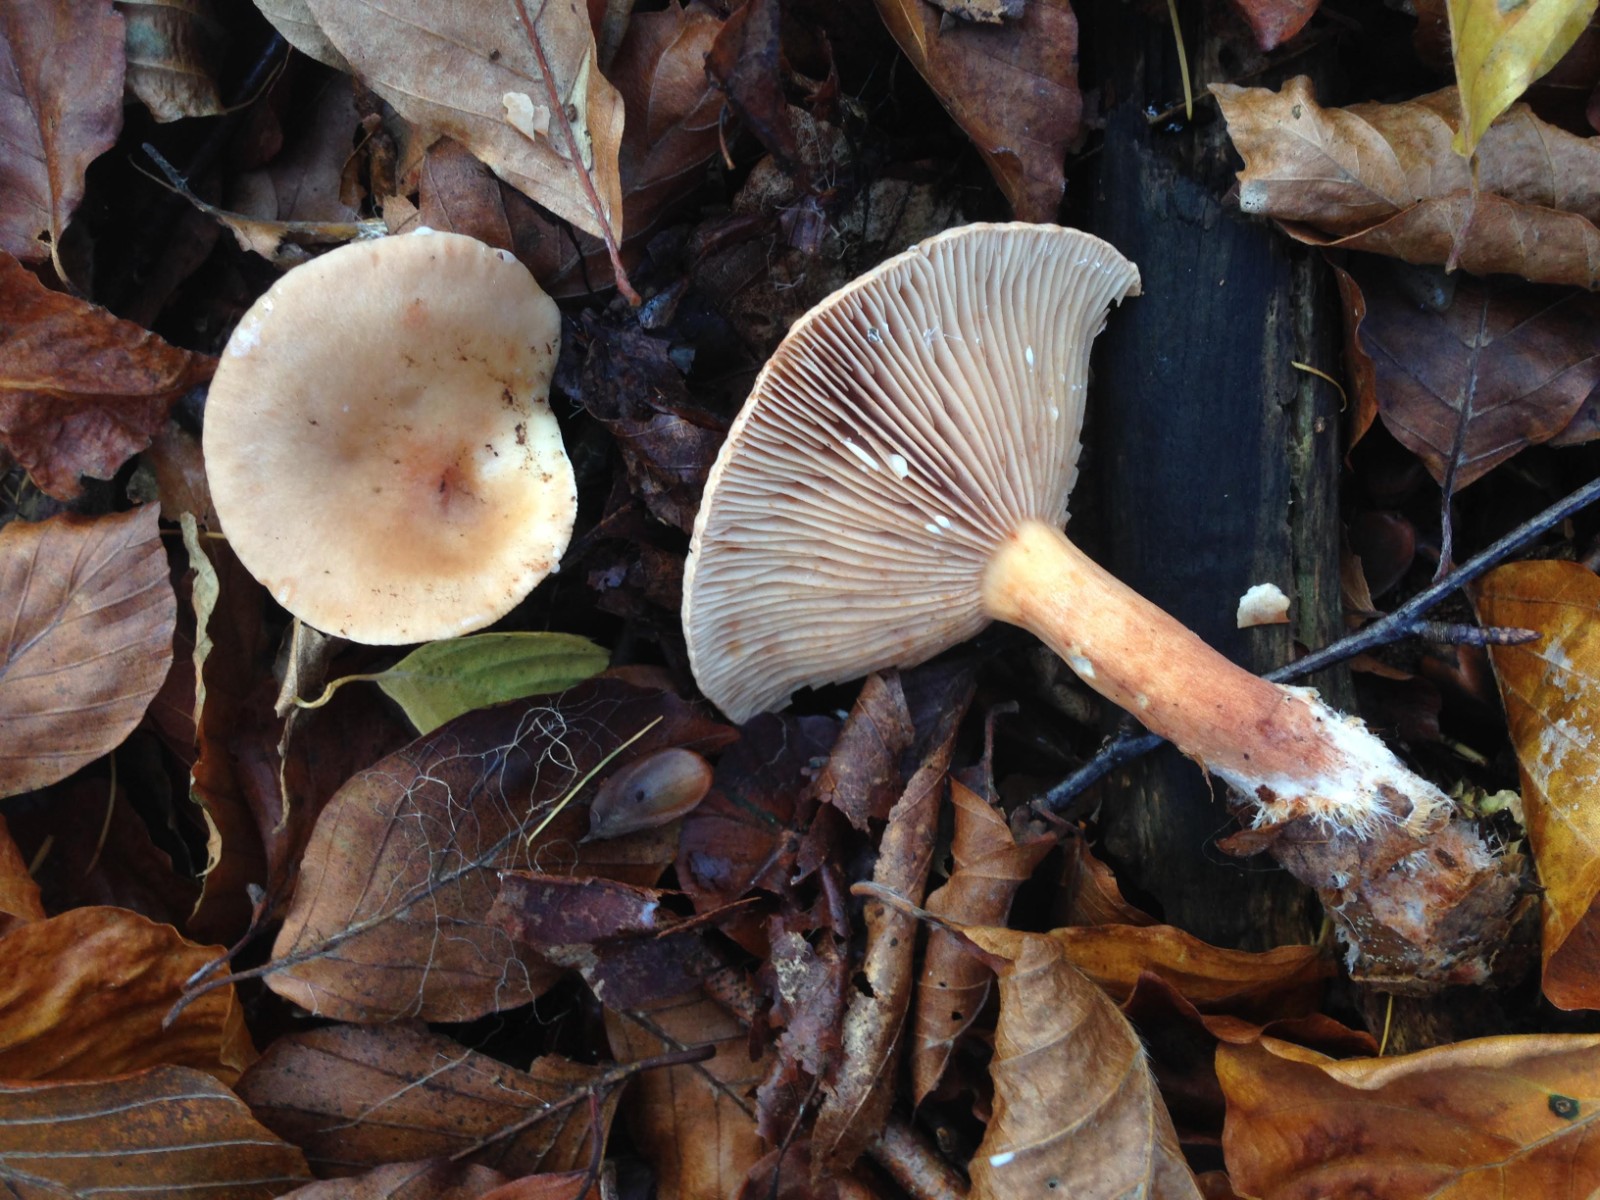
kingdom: Fungi
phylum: Basidiomycota
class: Agaricomycetes
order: Russulales
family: Russulaceae
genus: Lactarius
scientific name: Lactarius subdulcis
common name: sødlig mælkehat
